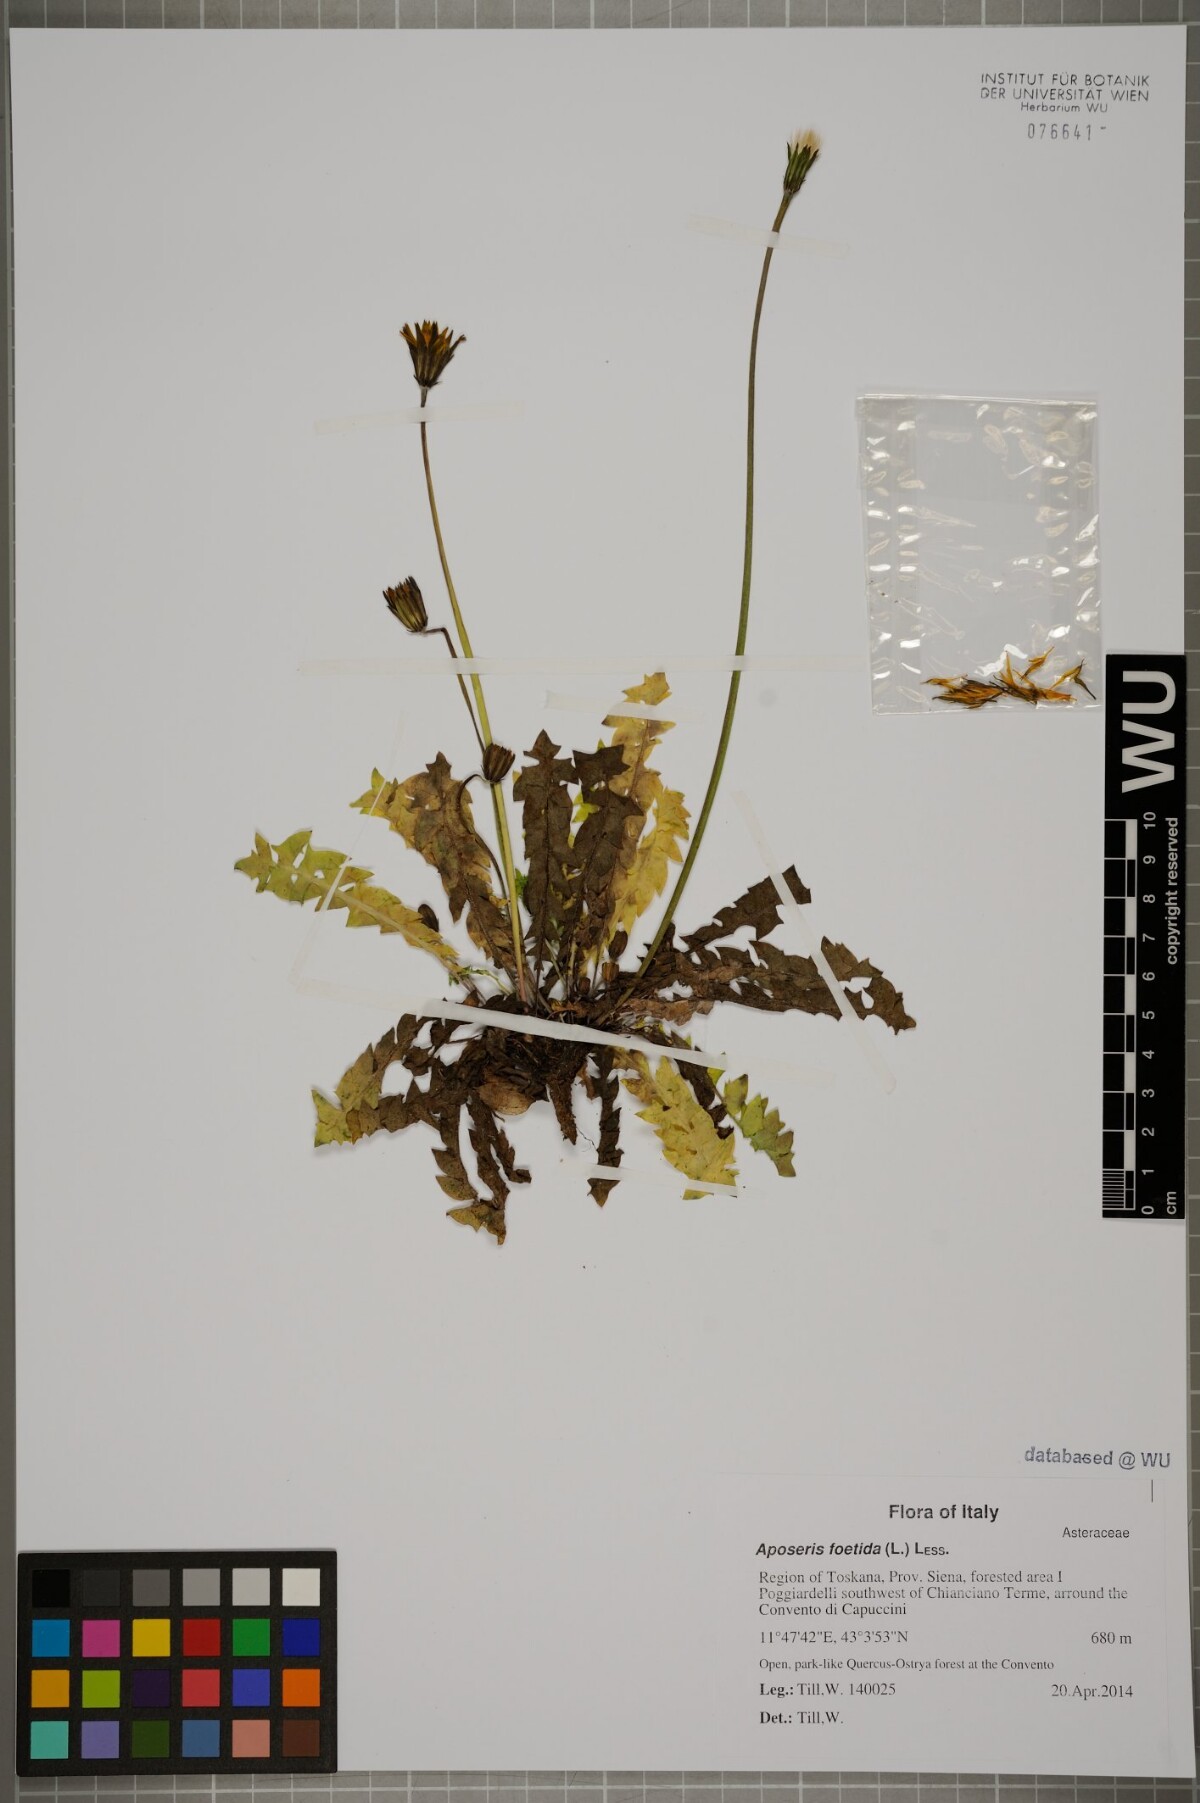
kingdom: Plantae
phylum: Tracheophyta
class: Magnoliopsida
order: Asterales
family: Asteraceae
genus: Aposeris
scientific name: Aposeris foetida
